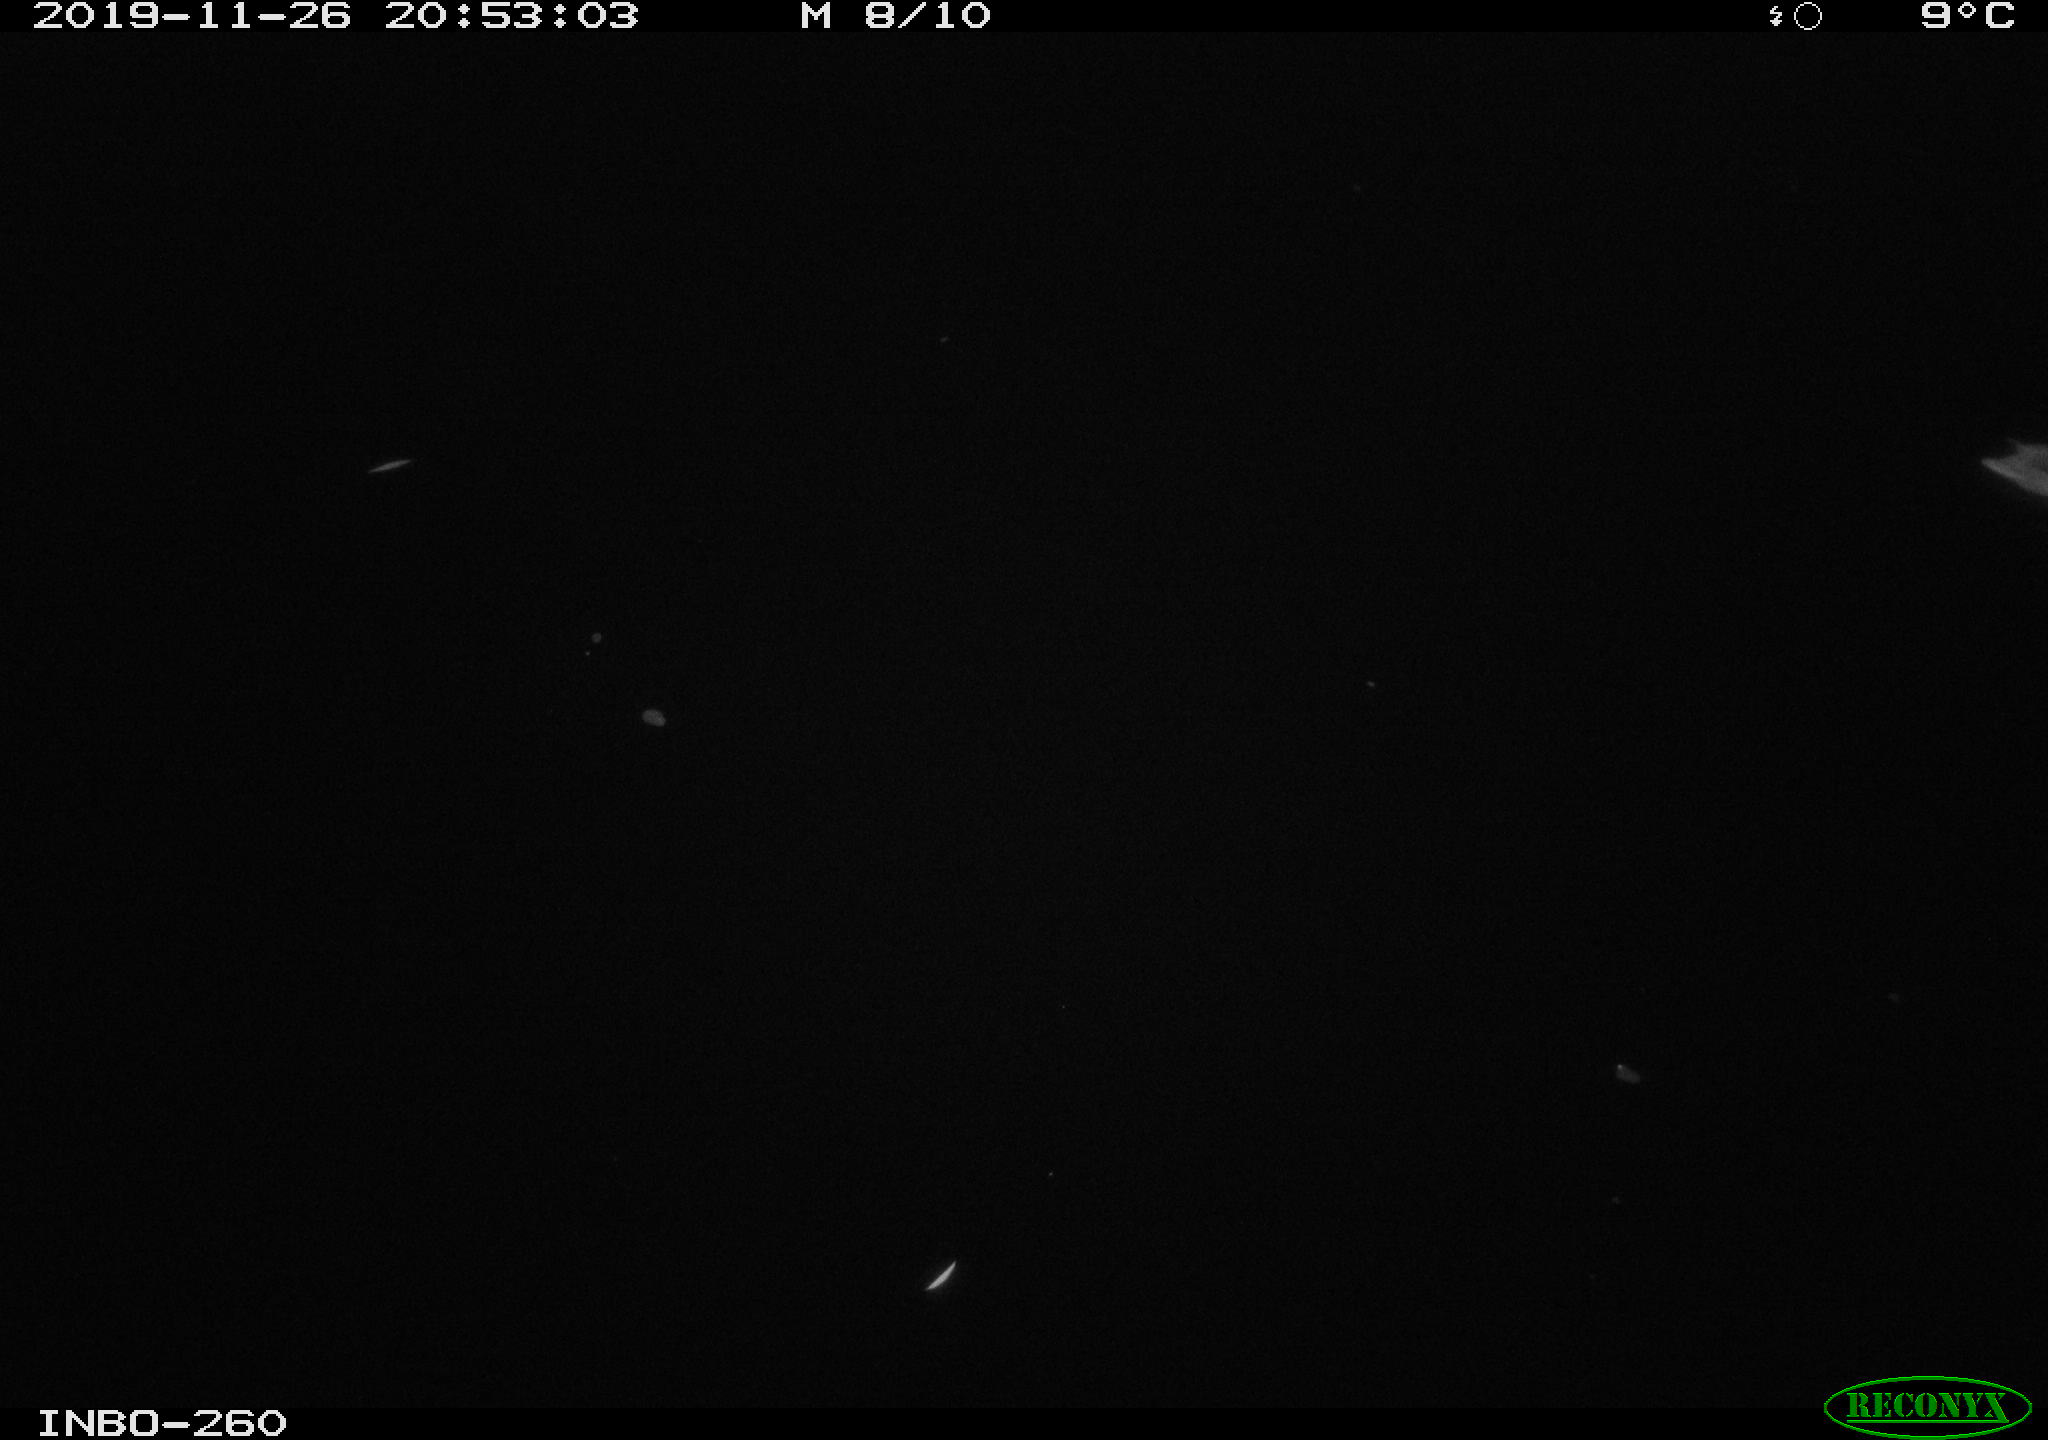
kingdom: Animalia
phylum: Chordata
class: Aves
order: Anseriformes
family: Anatidae
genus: Anas
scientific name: Anas platyrhynchos
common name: Mallard
